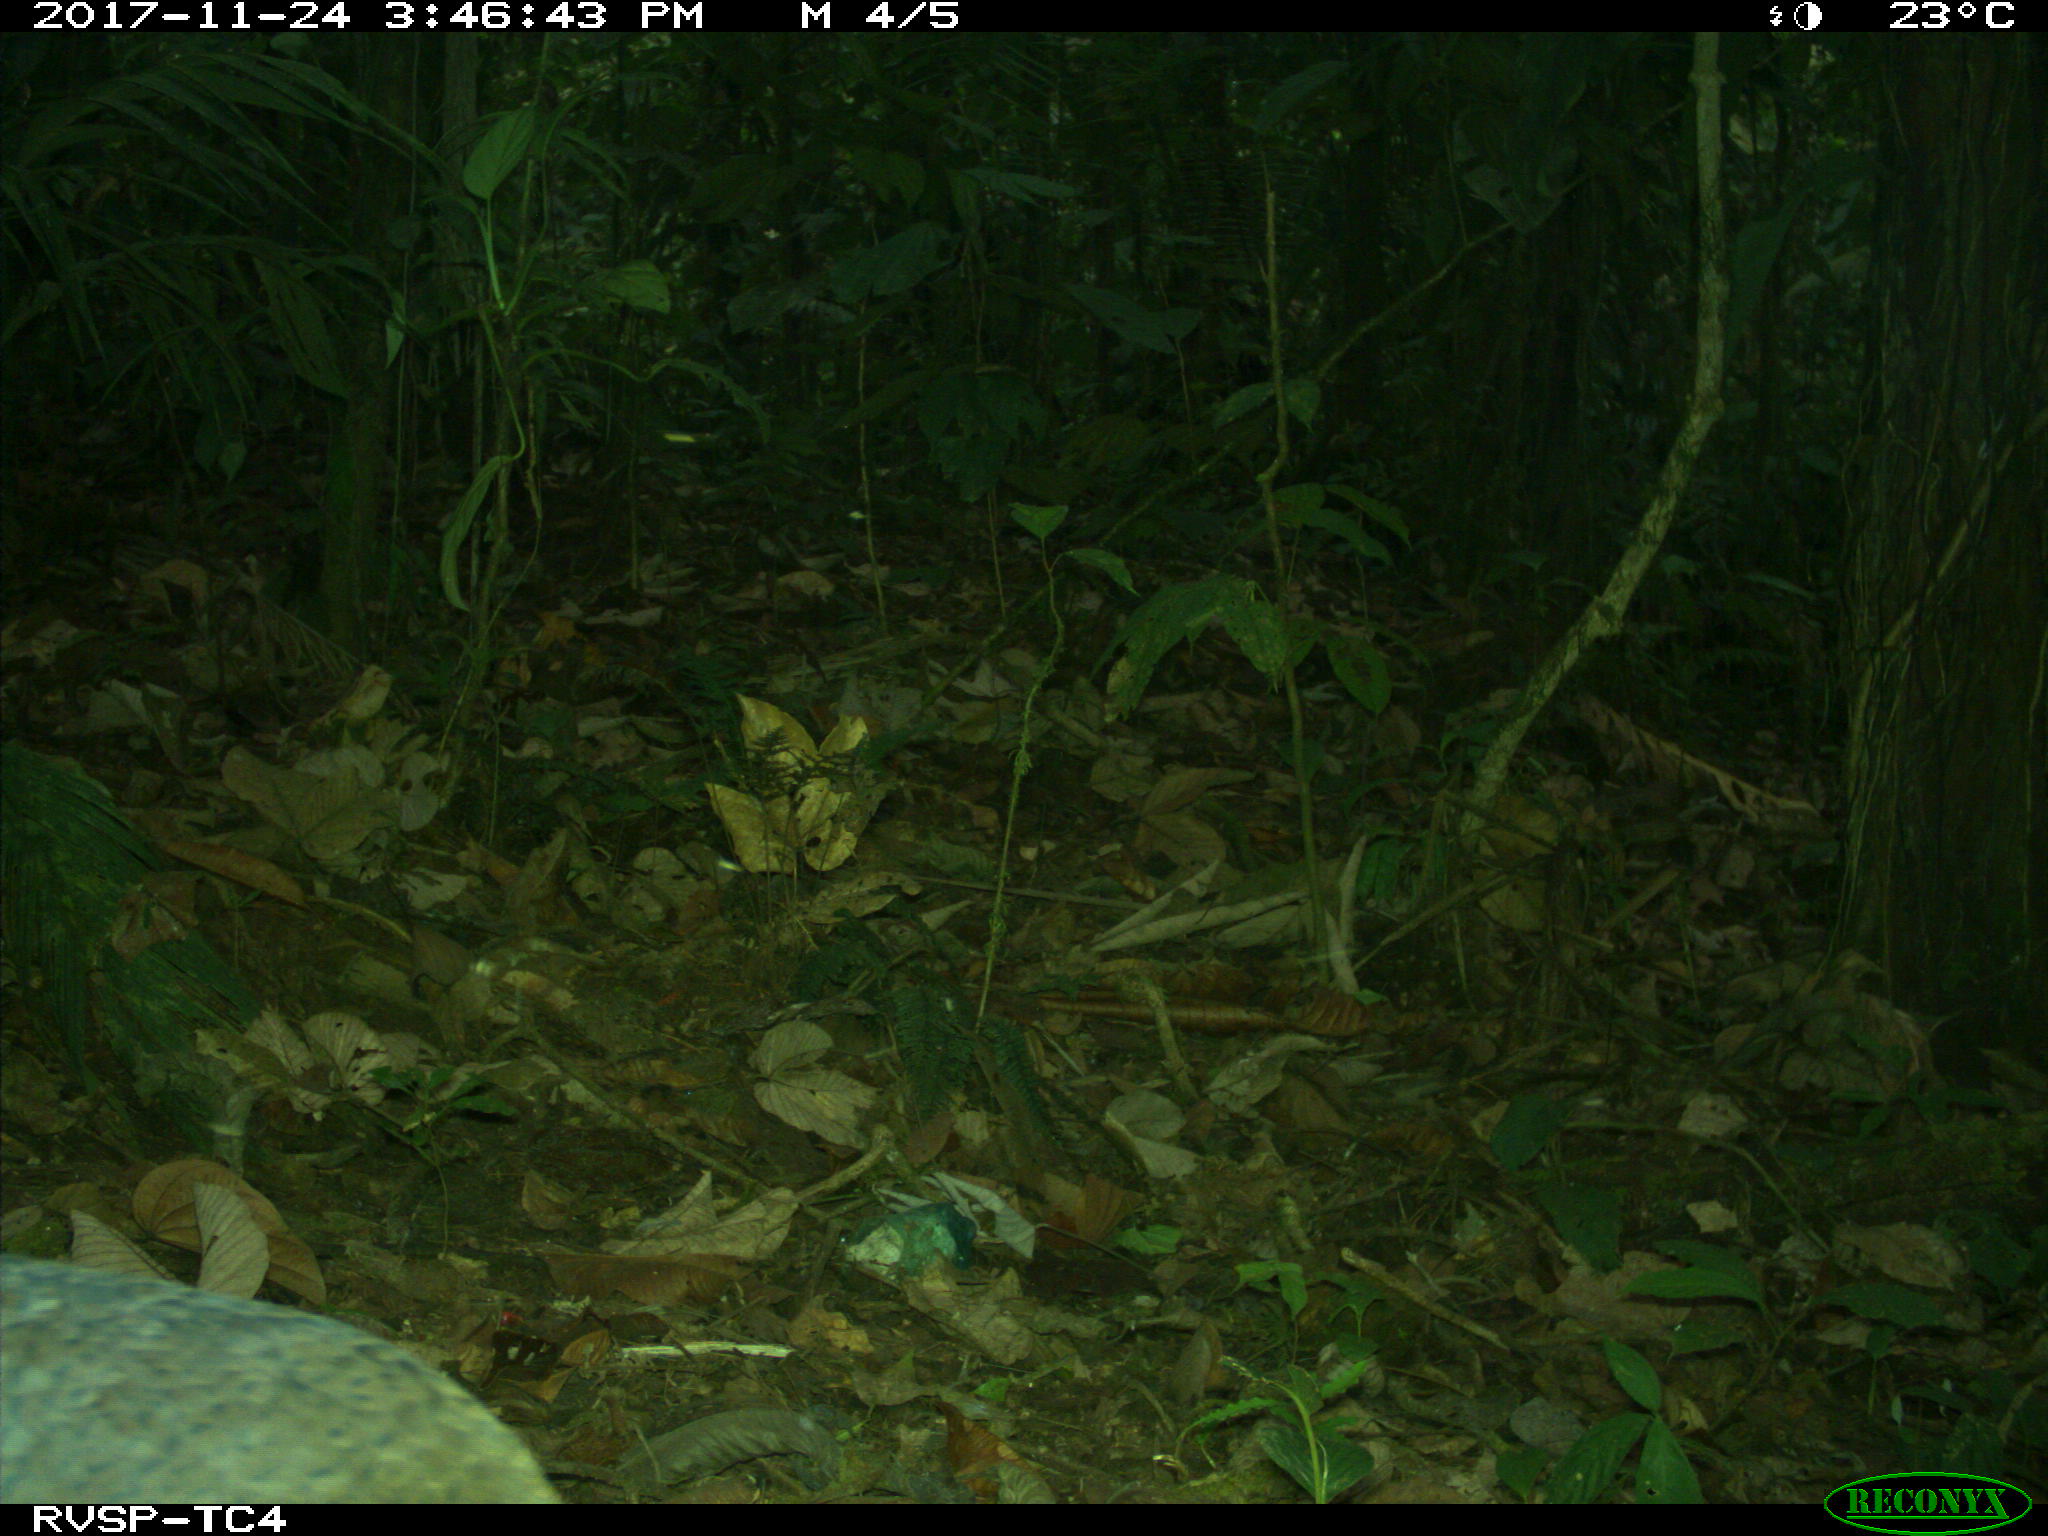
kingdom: Animalia
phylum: Chordata
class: Aves
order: Tinamiformes
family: Tinamidae
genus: Tinamus
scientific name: Tinamus major
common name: Great tinamou
